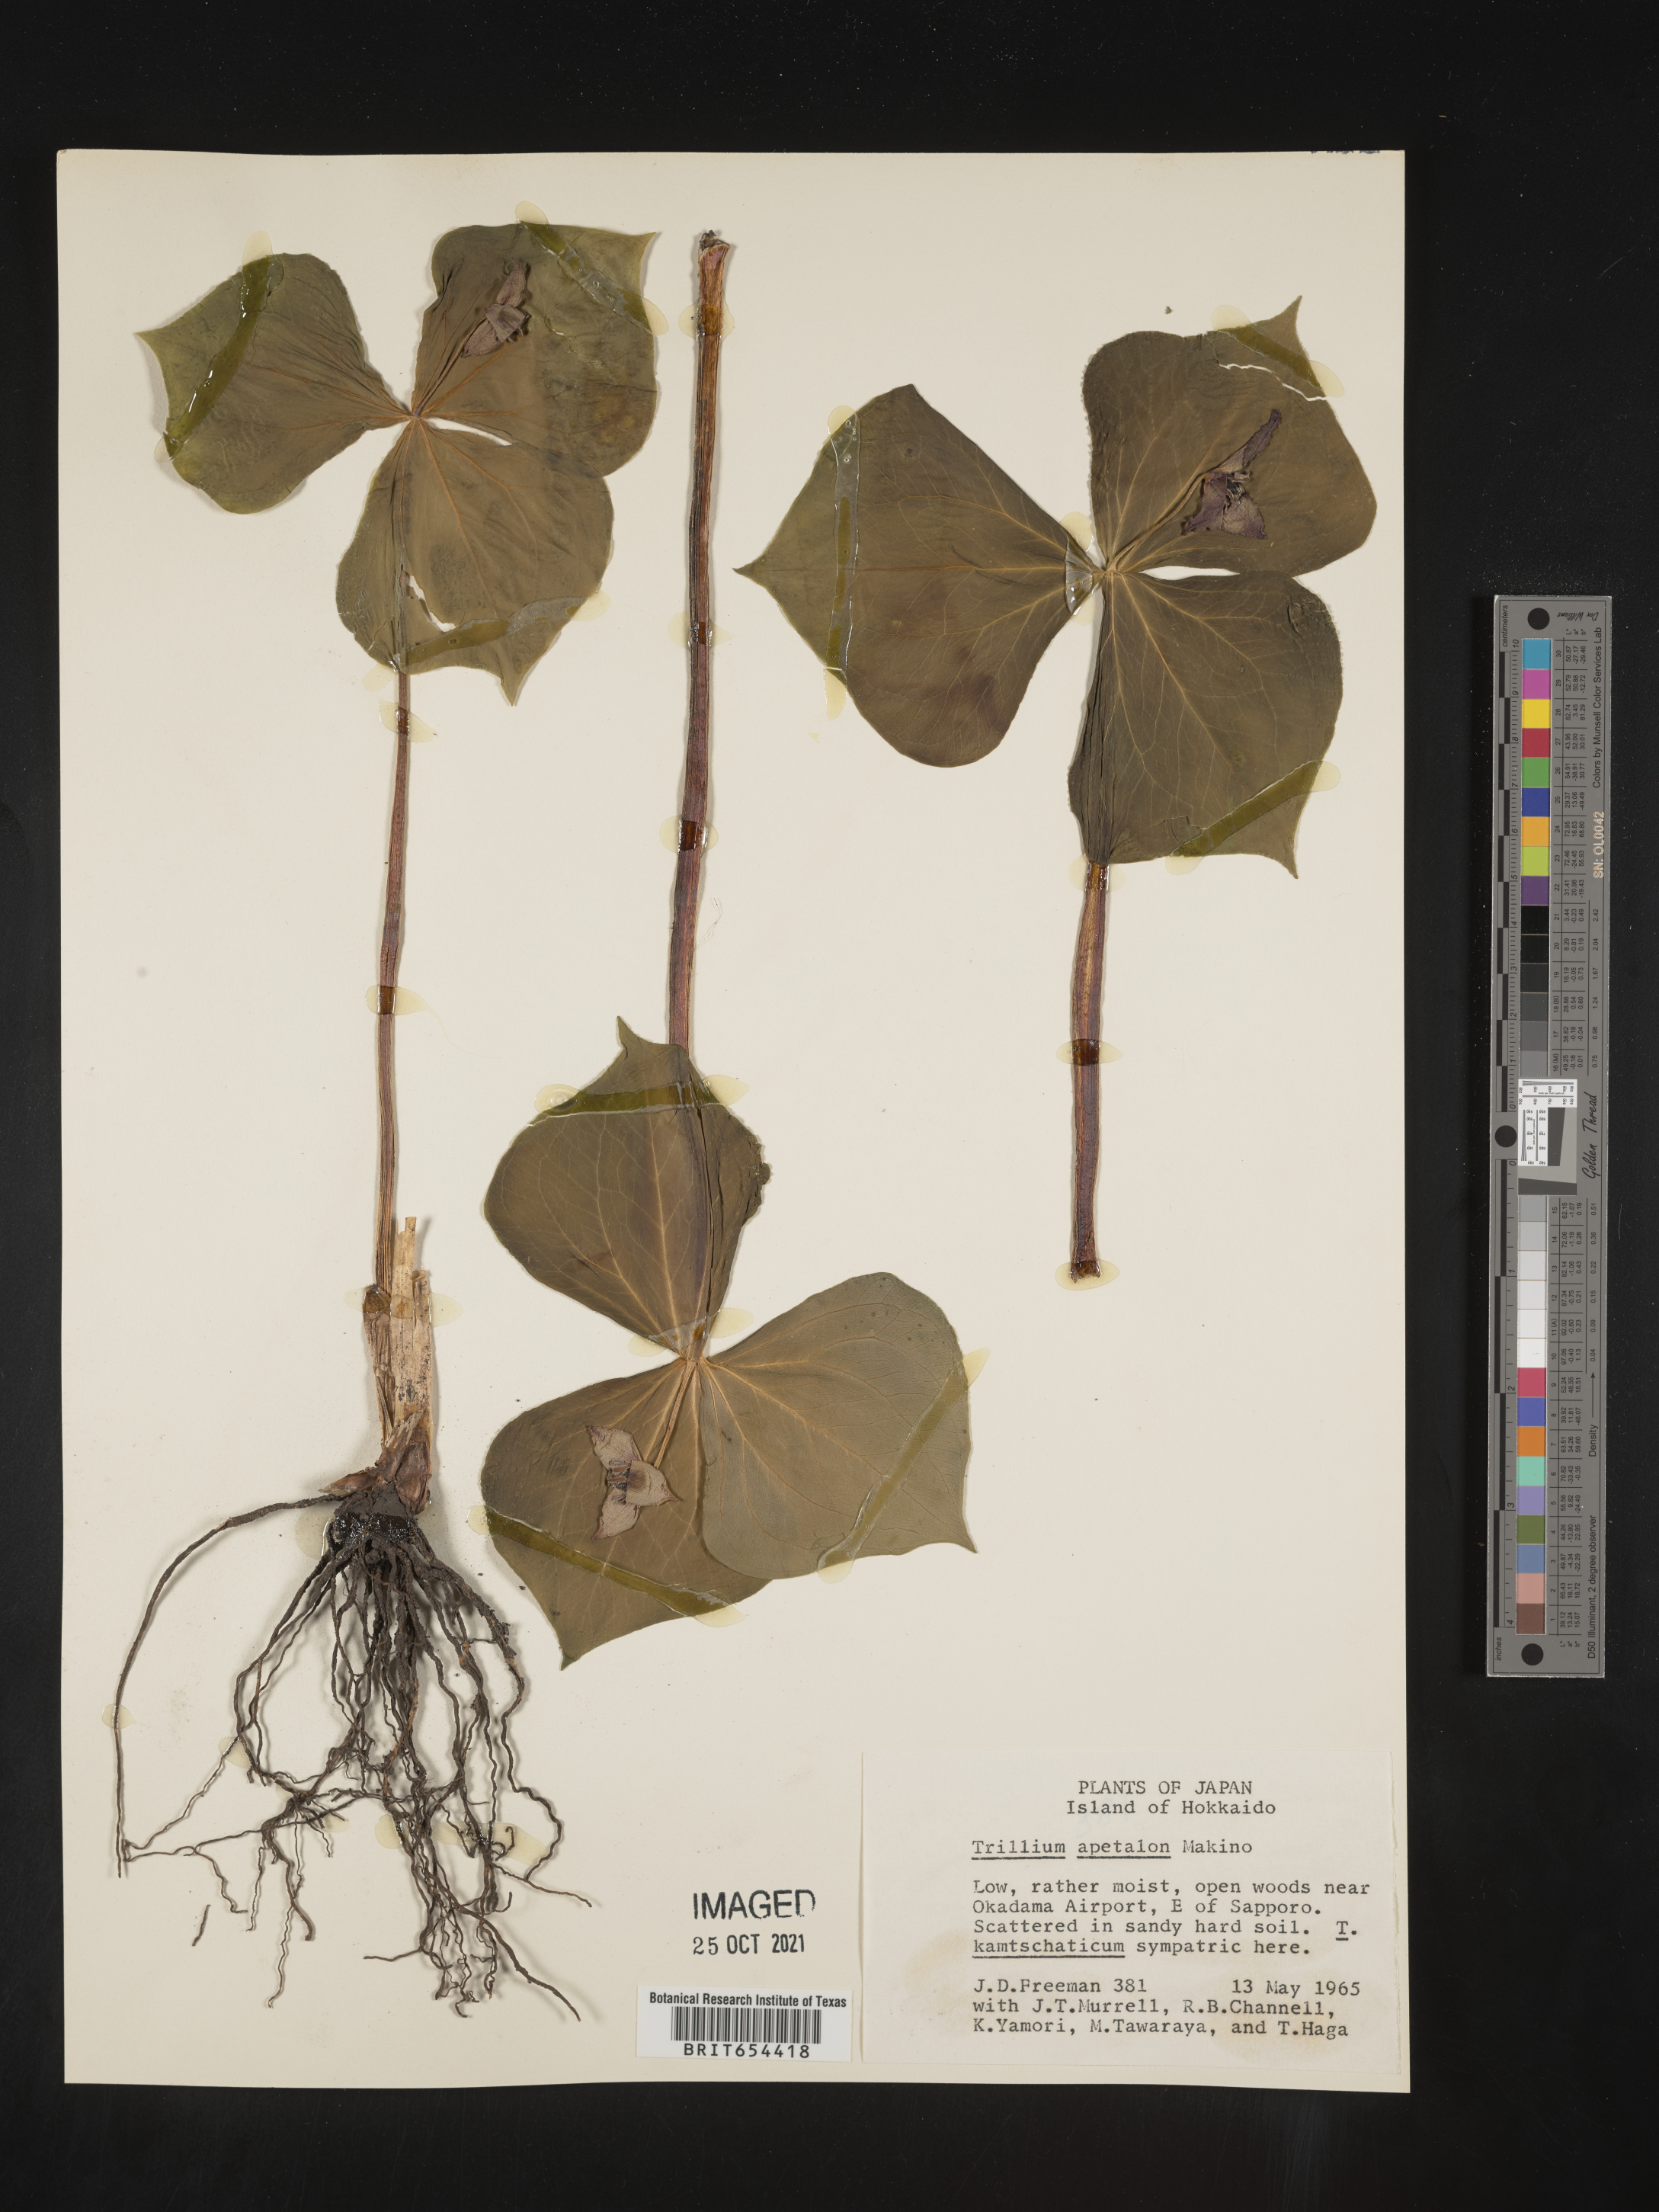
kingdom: Plantae
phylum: Tracheophyta
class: Liliopsida
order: Liliales
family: Melanthiaceae
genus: Trillium
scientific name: Trillium
